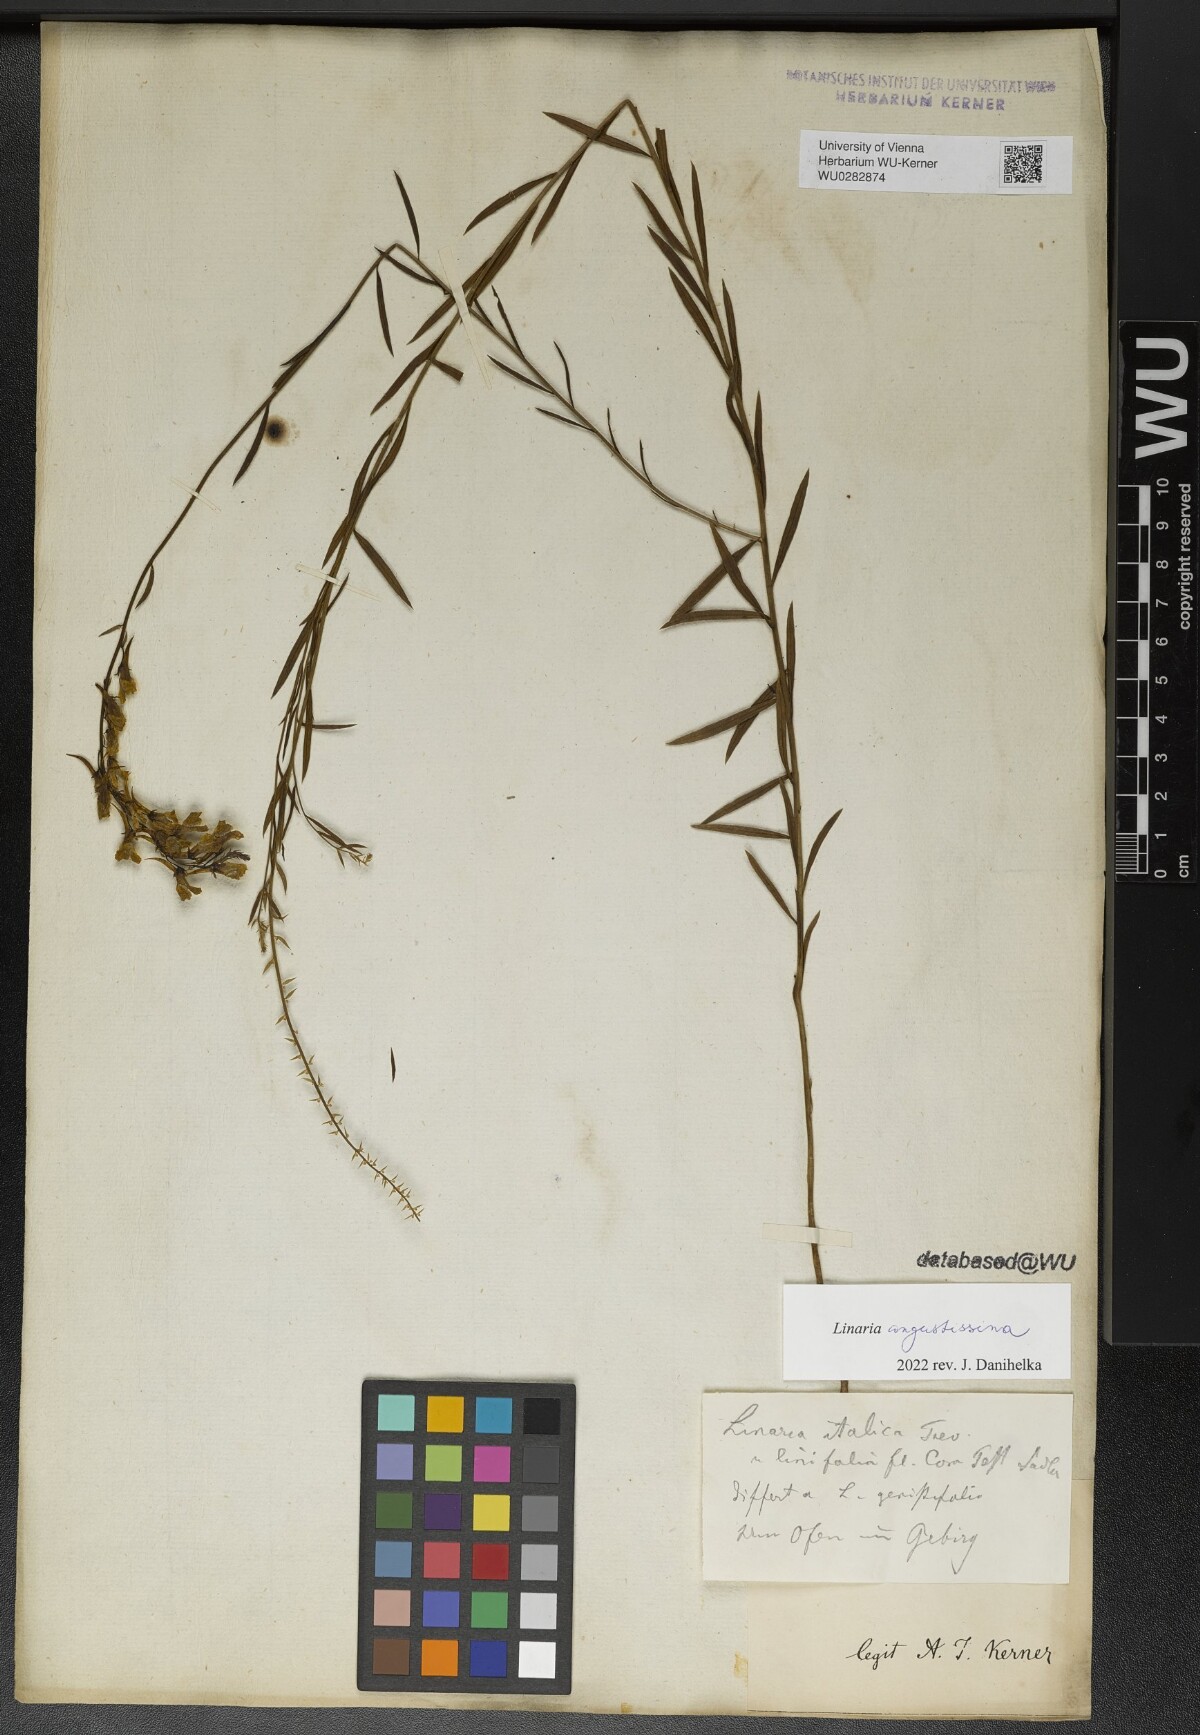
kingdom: Plantae
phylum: Tracheophyta
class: Magnoliopsida
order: Lamiales
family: Plantaginaceae
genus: Linaria
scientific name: Linaria angustissima
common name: Italian toadflax
